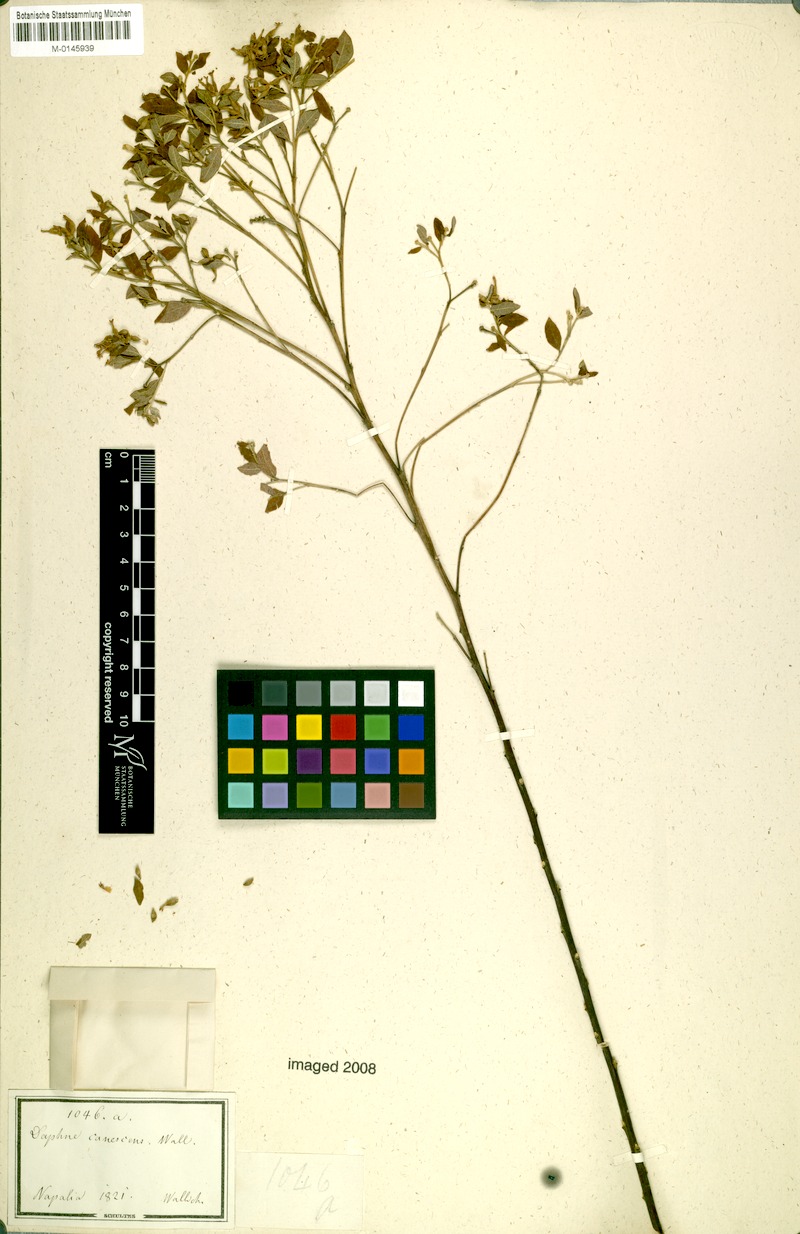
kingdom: Plantae
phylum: Tracheophyta
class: Magnoliopsida
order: Malvales
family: Thymelaeaceae
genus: Wikstroemia
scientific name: Wikstroemia canescens
